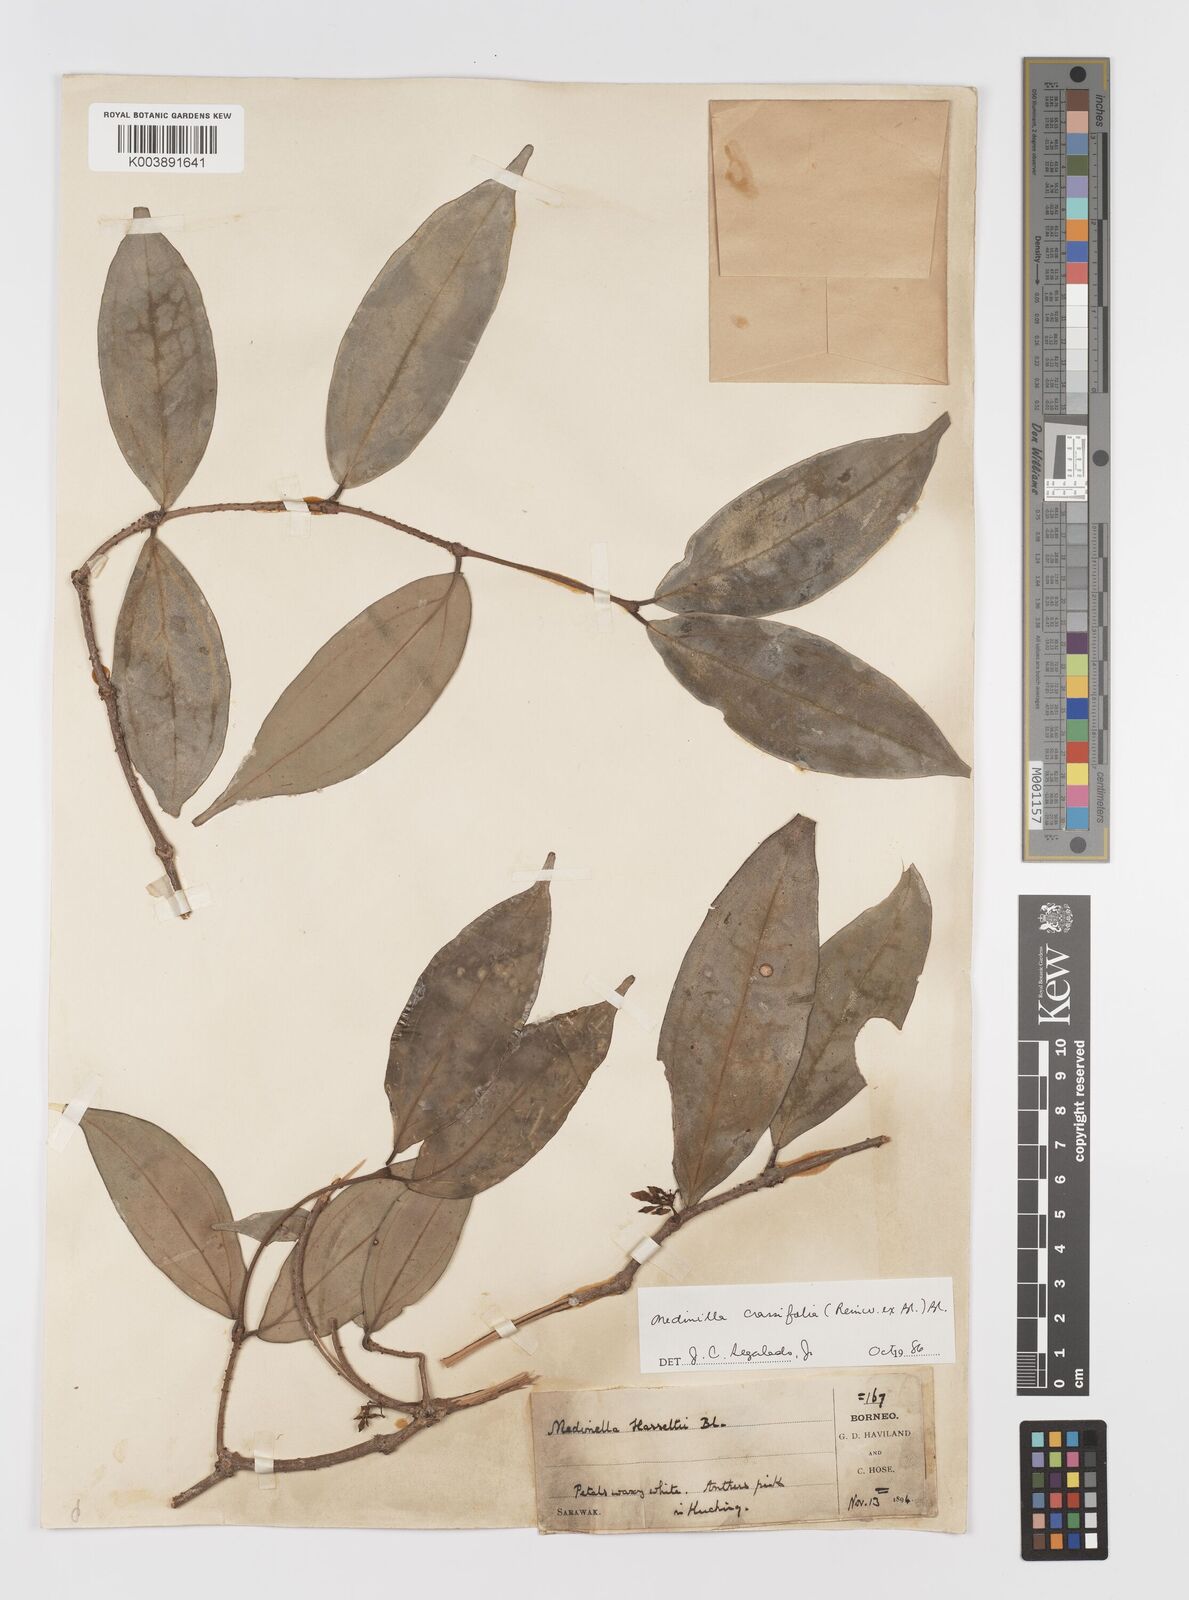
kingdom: Plantae
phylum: Tracheophyta
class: Magnoliopsida
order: Myrtales
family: Melastomataceae
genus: Medinilla
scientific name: Medinilla crassifolia
